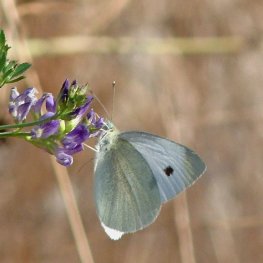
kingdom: Animalia
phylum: Arthropoda
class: Insecta
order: Lepidoptera
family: Pieridae
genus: Pieris
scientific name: Pieris rapae
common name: Cabbage White
